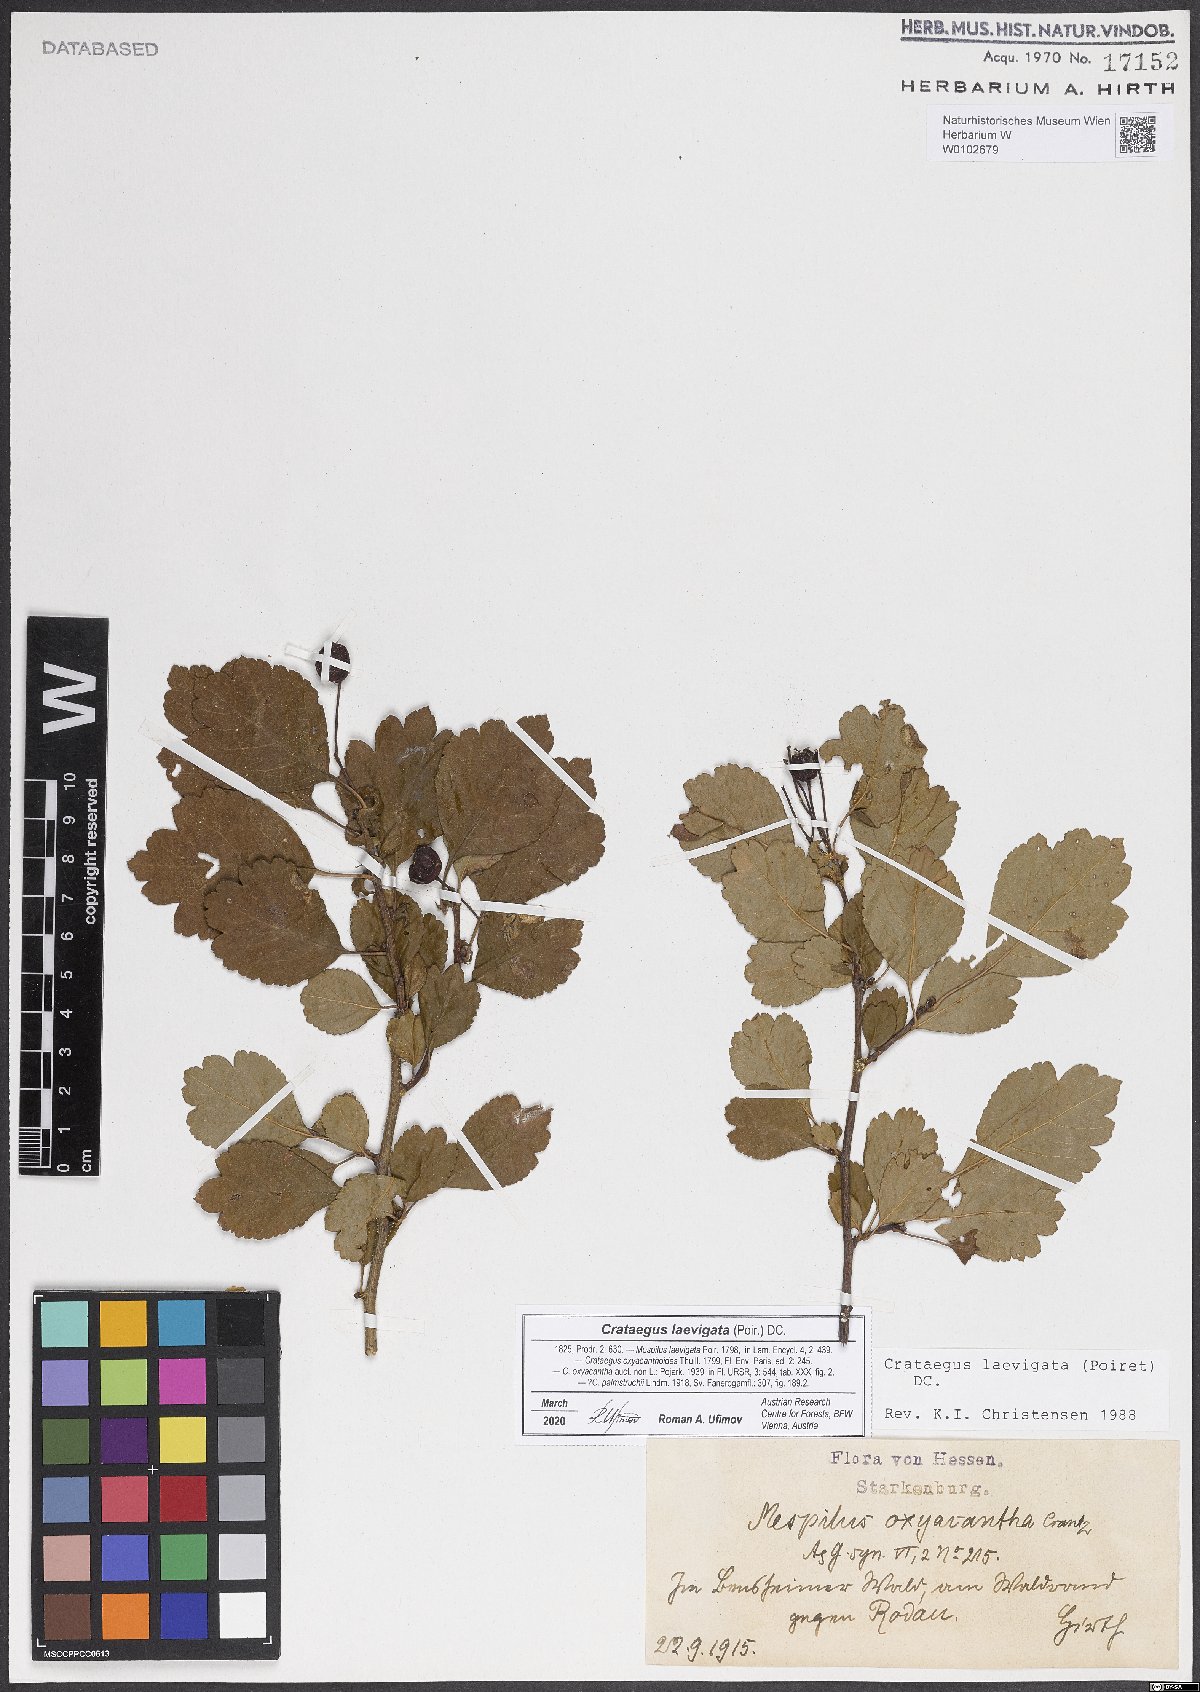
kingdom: Plantae
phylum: Tracheophyta
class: Magnoliopsida
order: Rosales
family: Rosaceae
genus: Crataegus
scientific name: Crataegus laevigata
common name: Midland hawthorn
